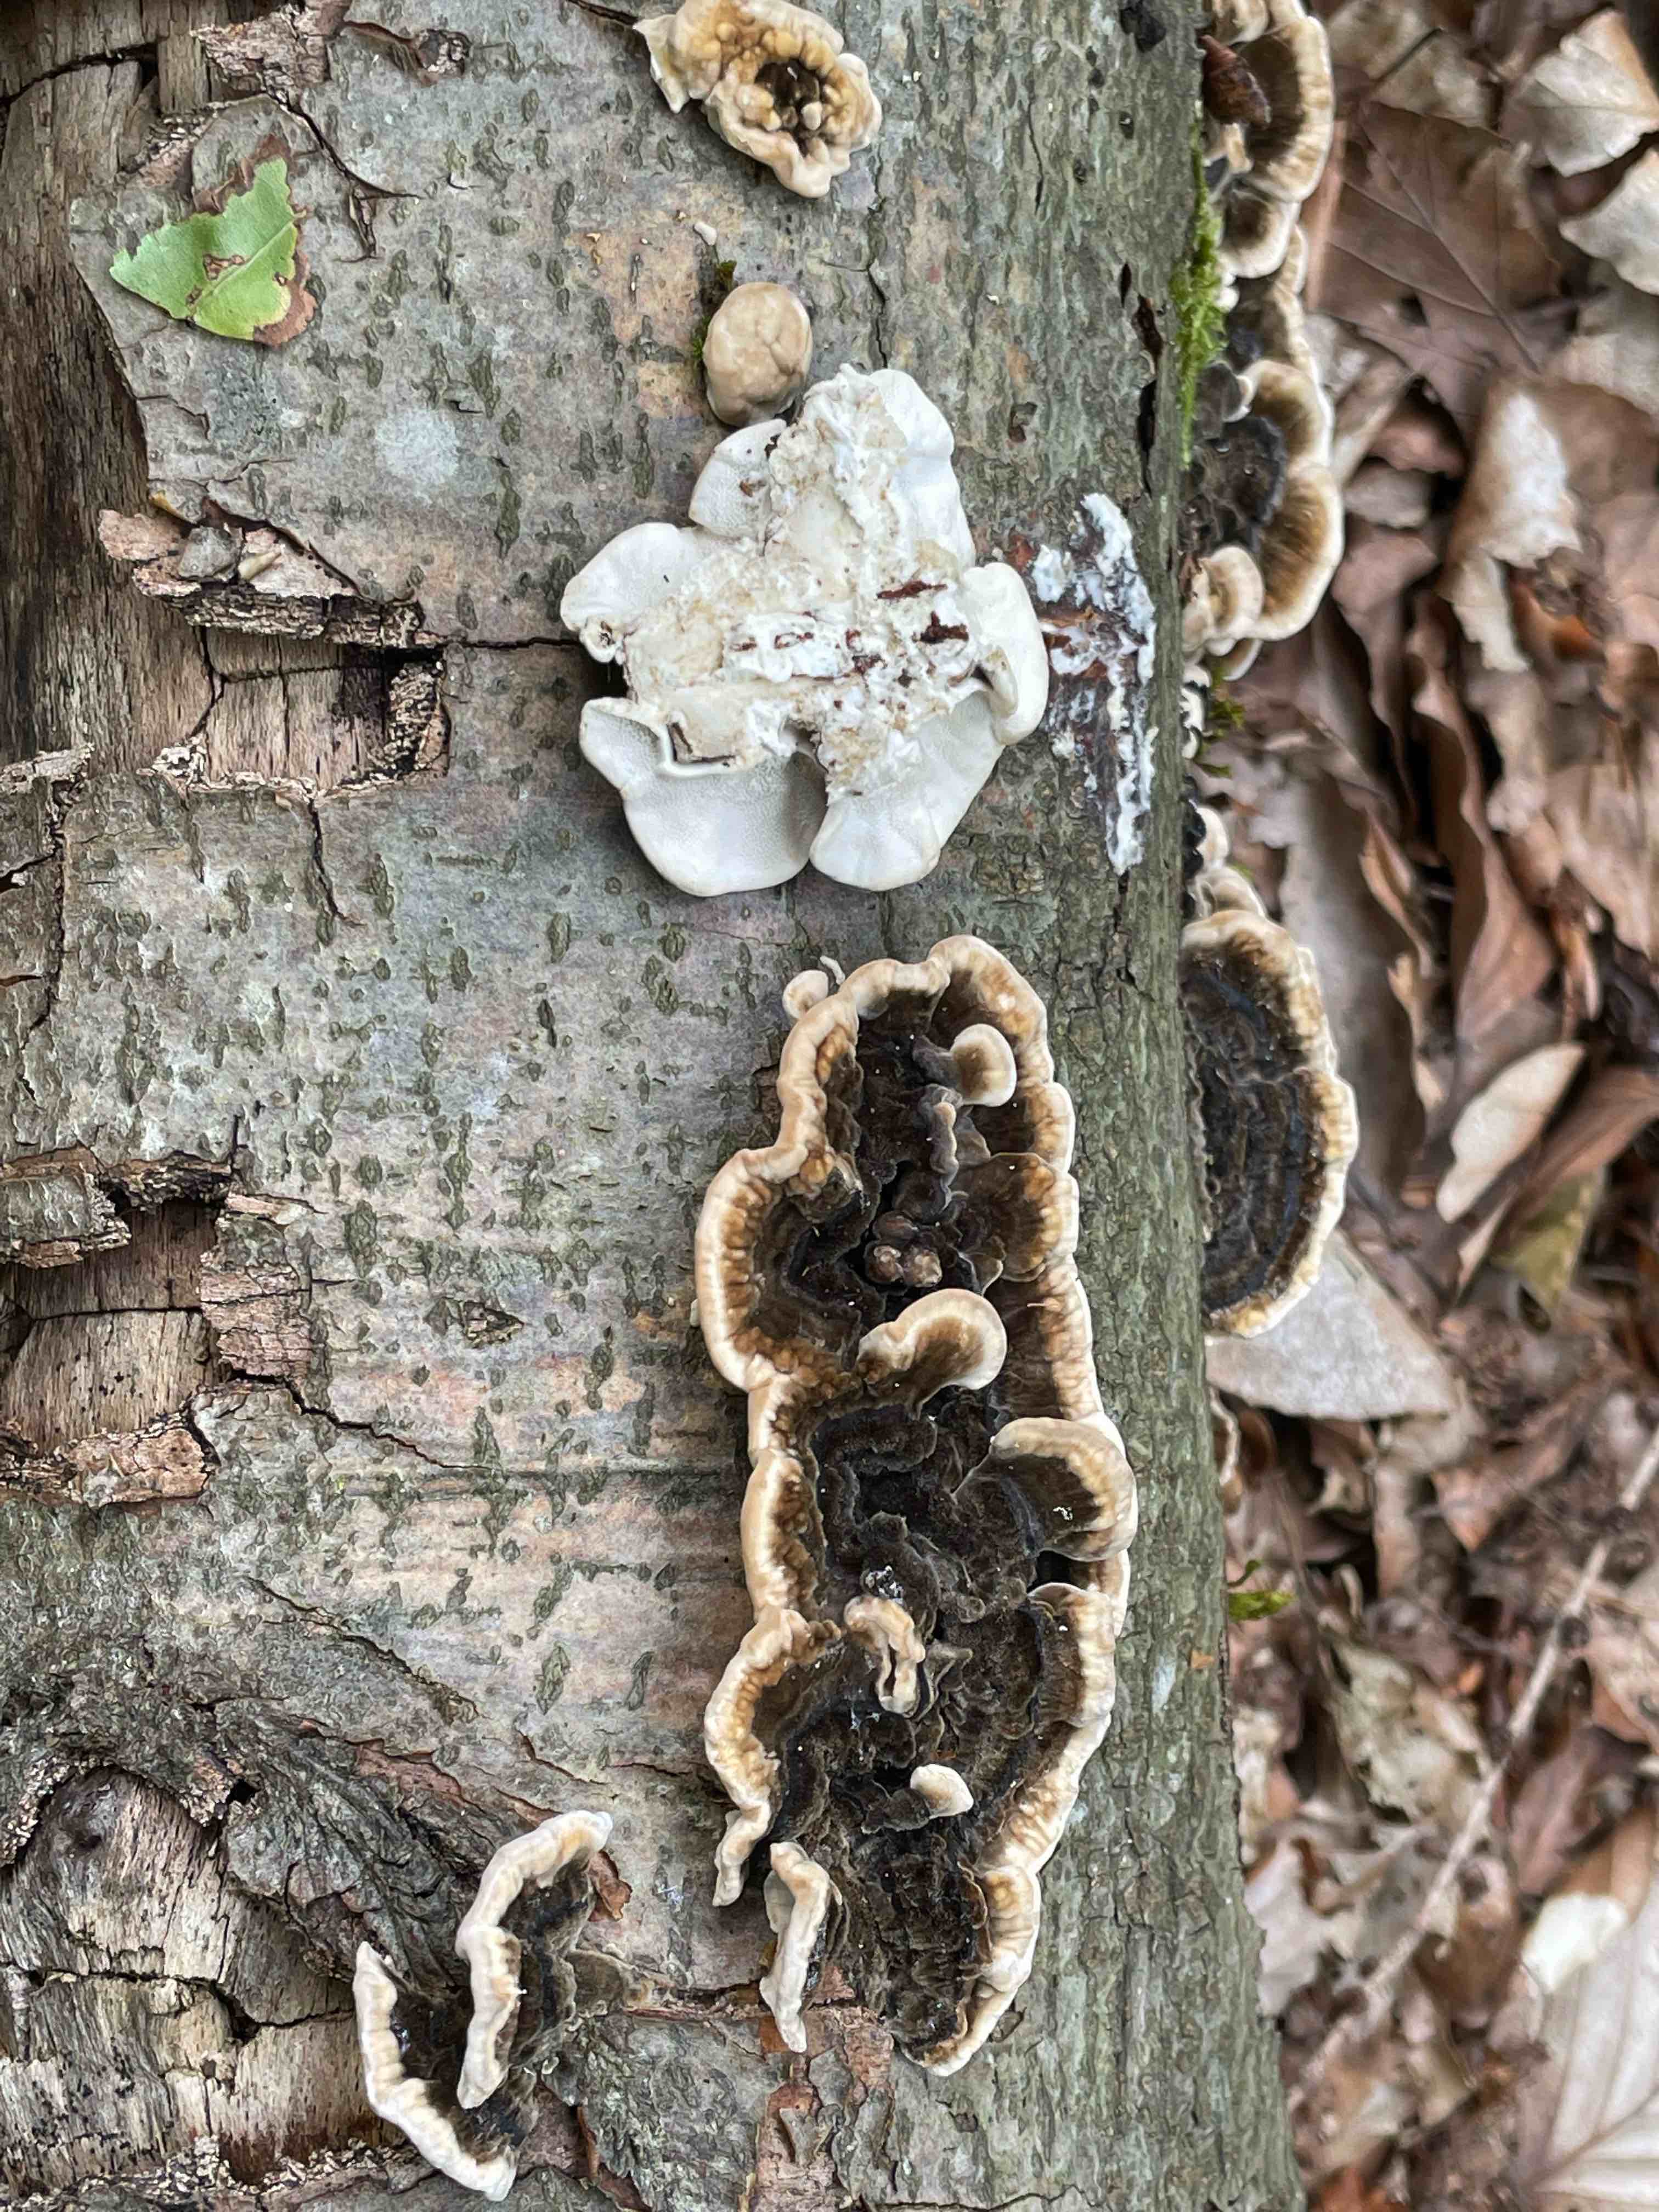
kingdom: Fungi
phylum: Basidiomycota
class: Agaricomycetes
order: Polyporales
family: Polyporaceae
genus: Trametes
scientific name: Trametes versicolor
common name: broget læderporesvamp
